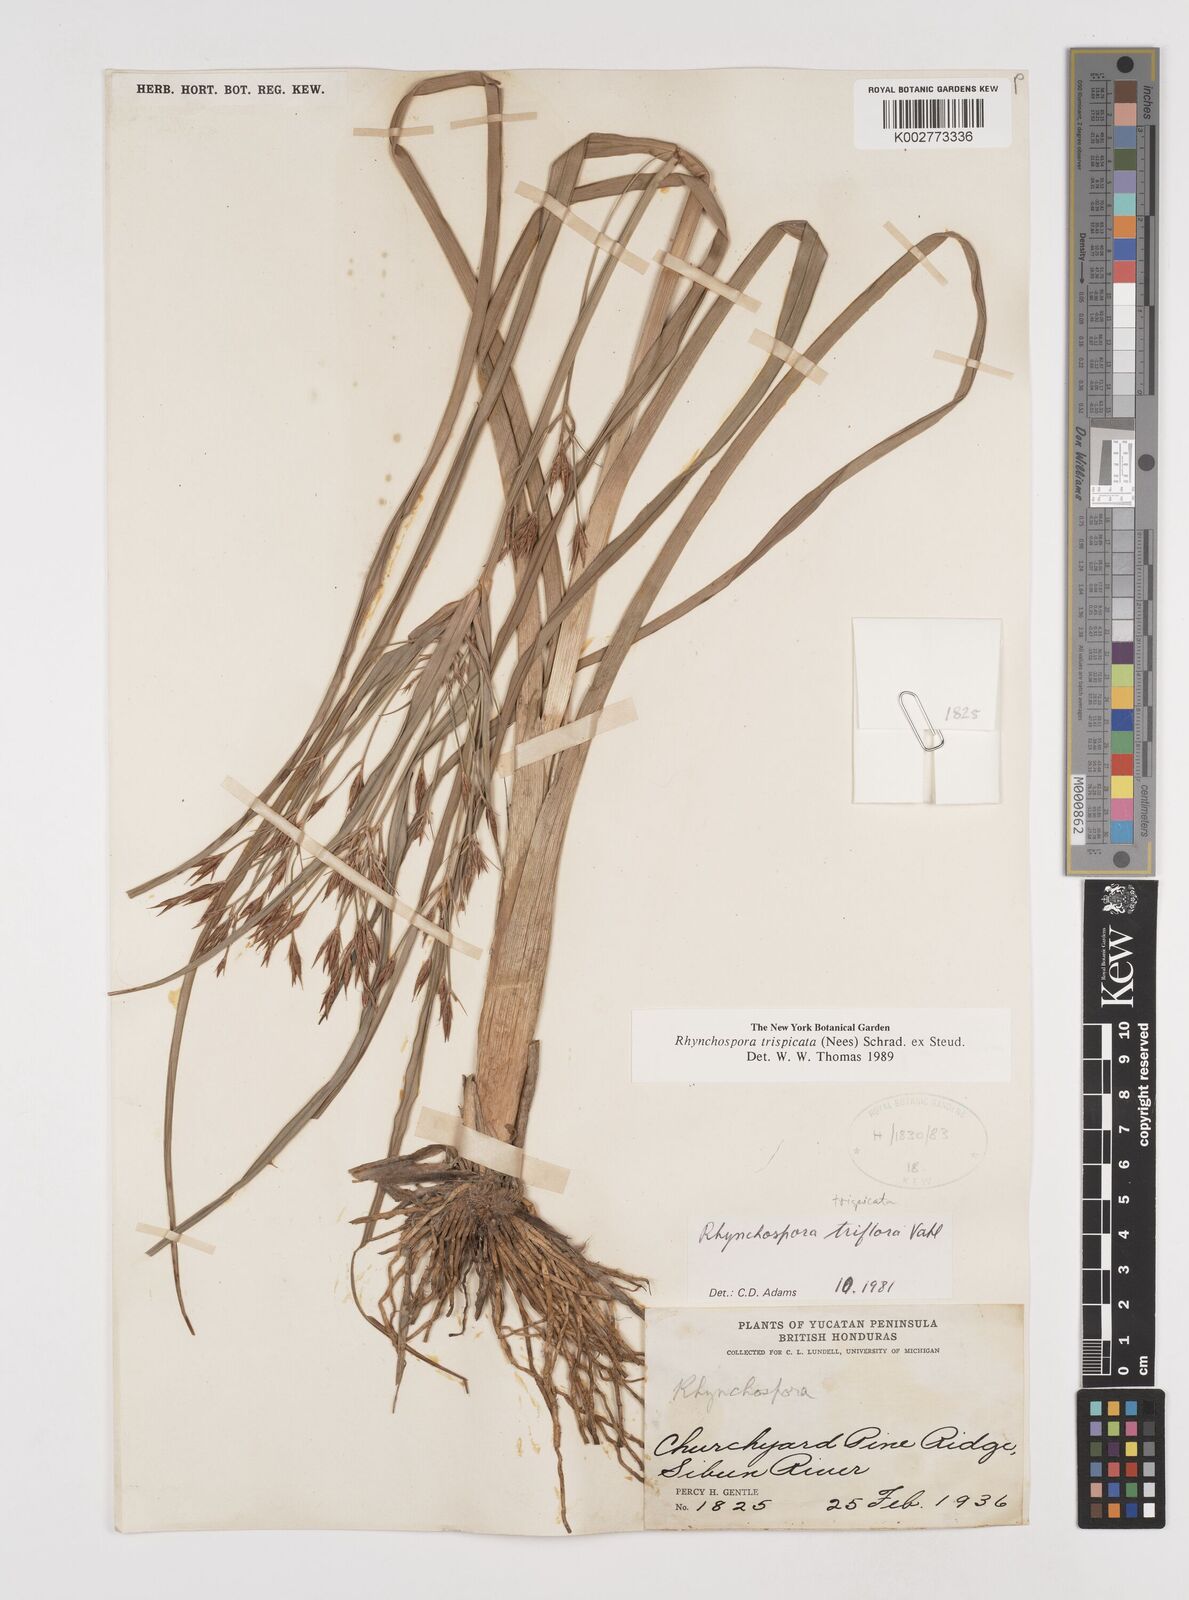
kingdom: Plantae
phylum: Tracheophyta
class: Liliopsida
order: Poales
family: Cyperaceae
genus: Rhynchospora
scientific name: Rhynchospora trispicata
